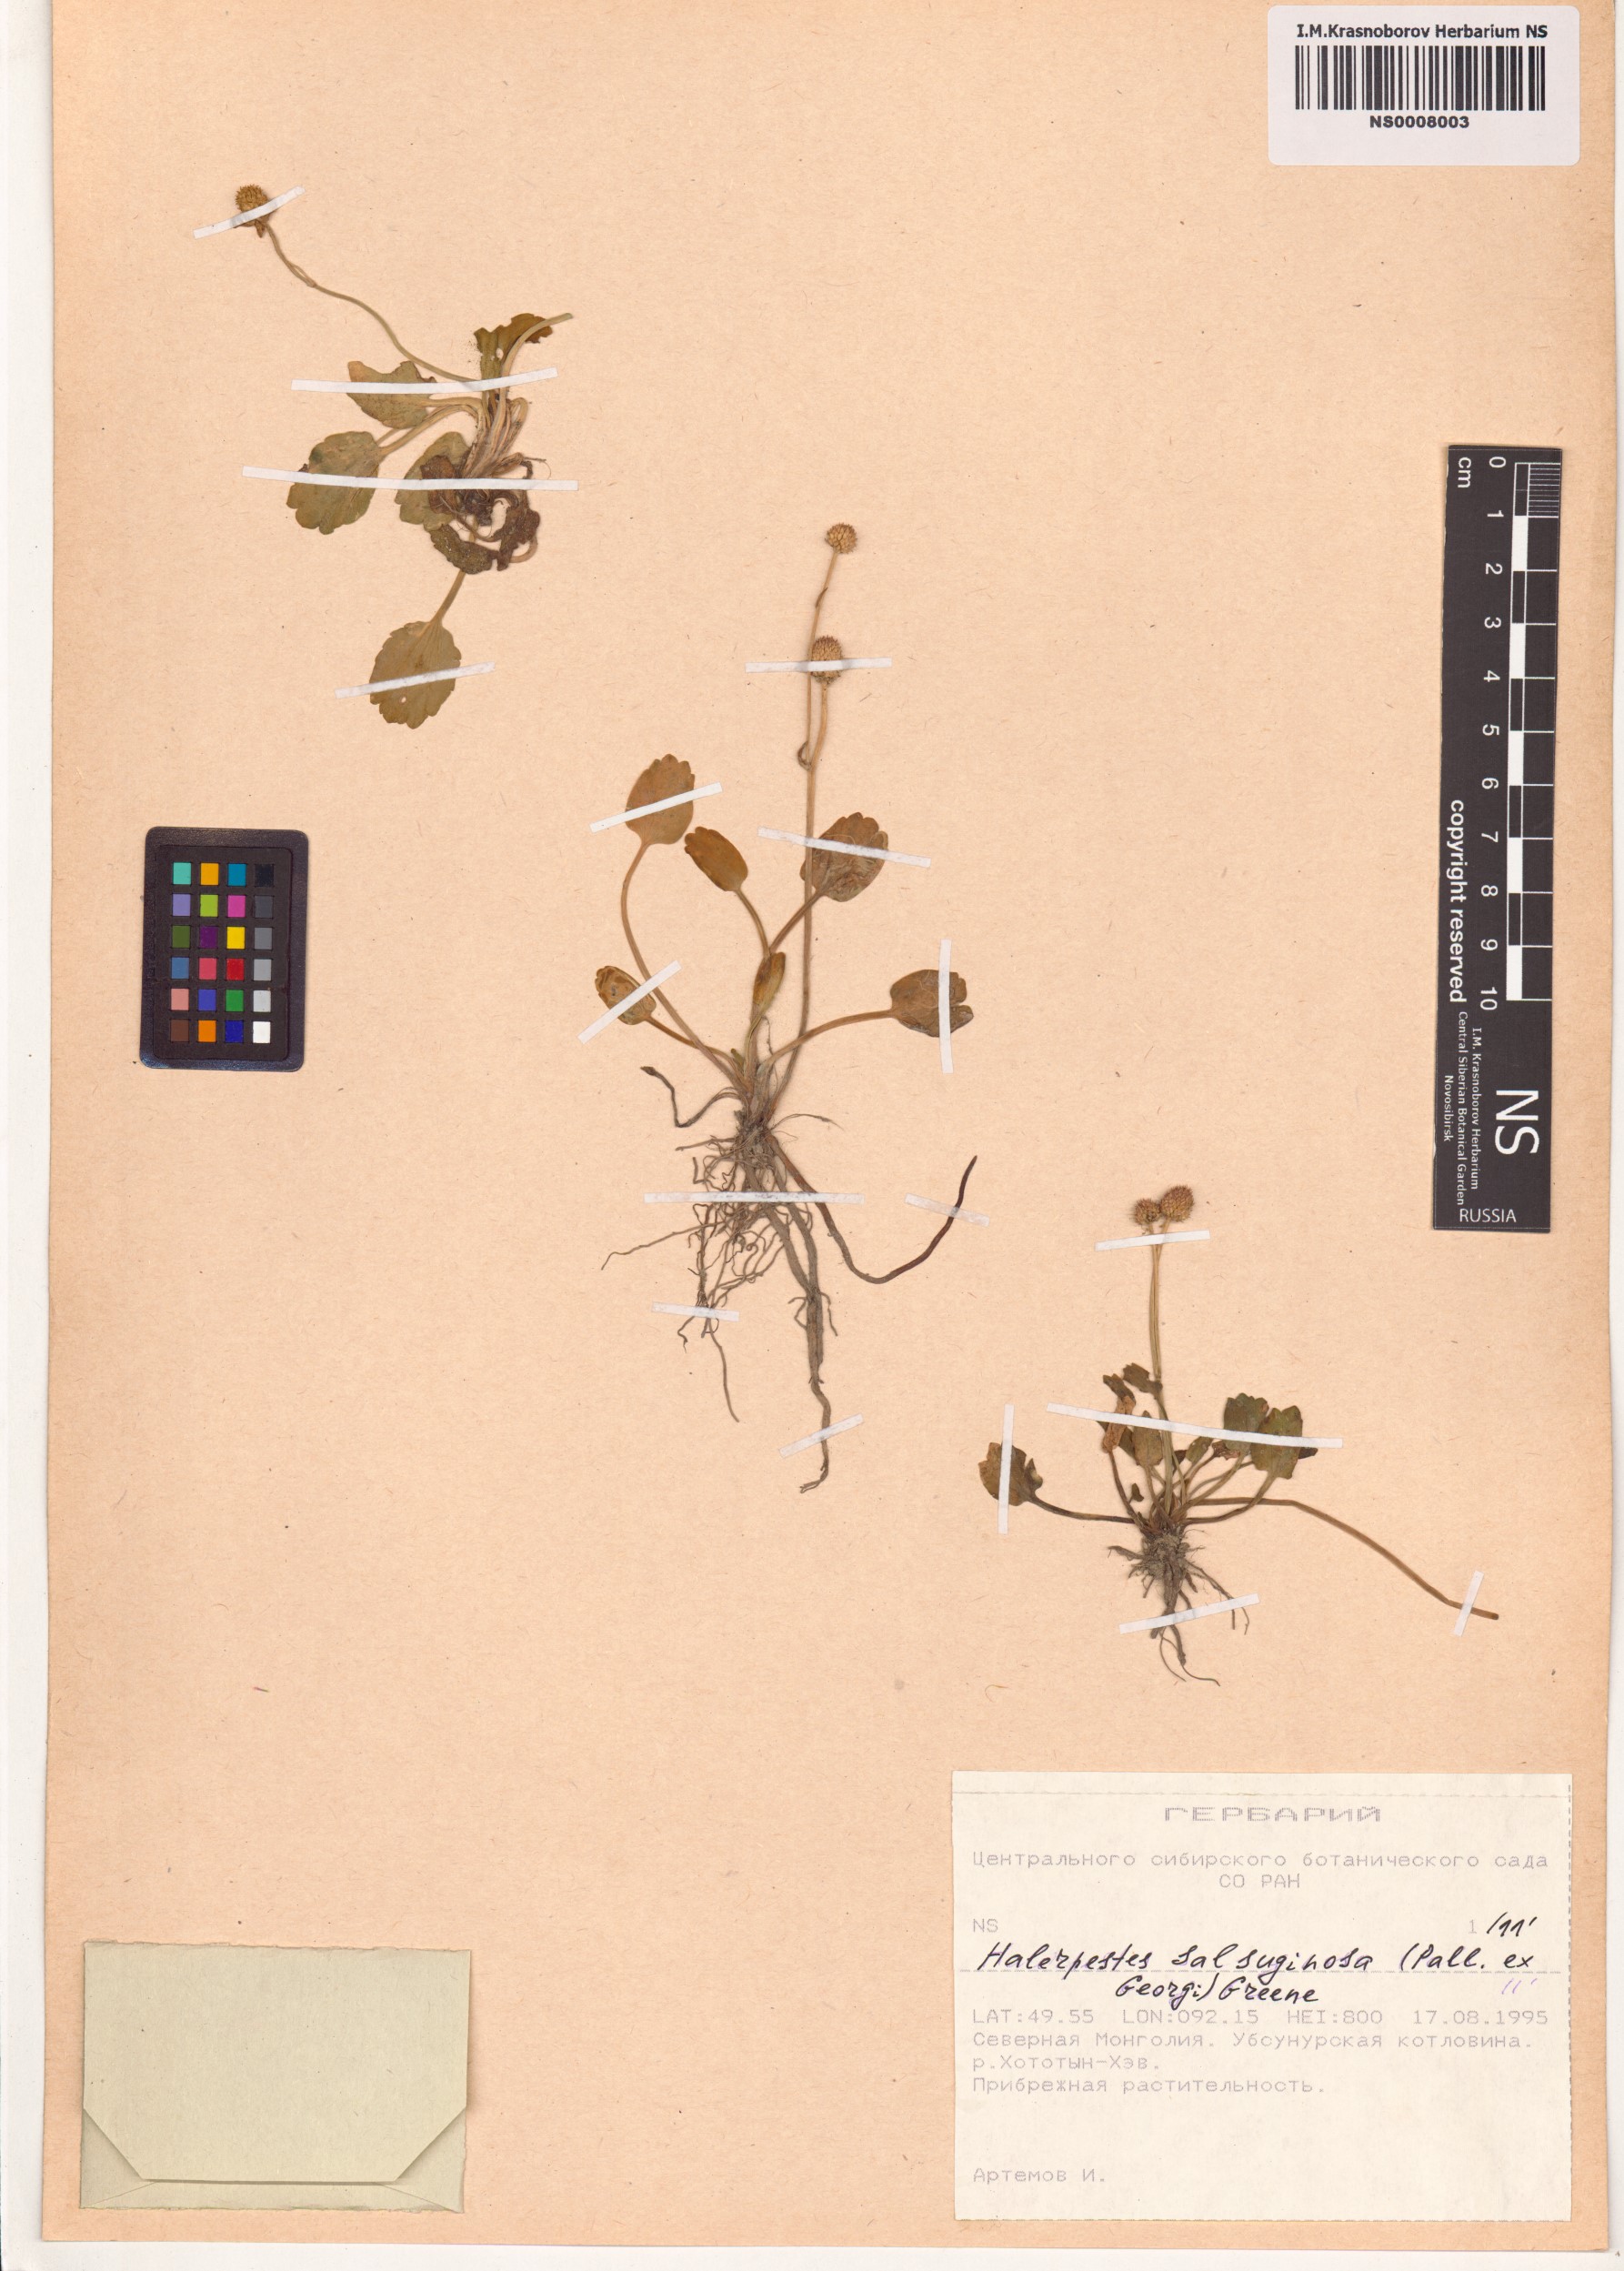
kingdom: Plantae
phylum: Tracheophyta
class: Magnoliopsida
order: Ranunculales
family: Ranunculaceae
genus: Halerpestes
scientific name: Halerpestes sarmentosus
